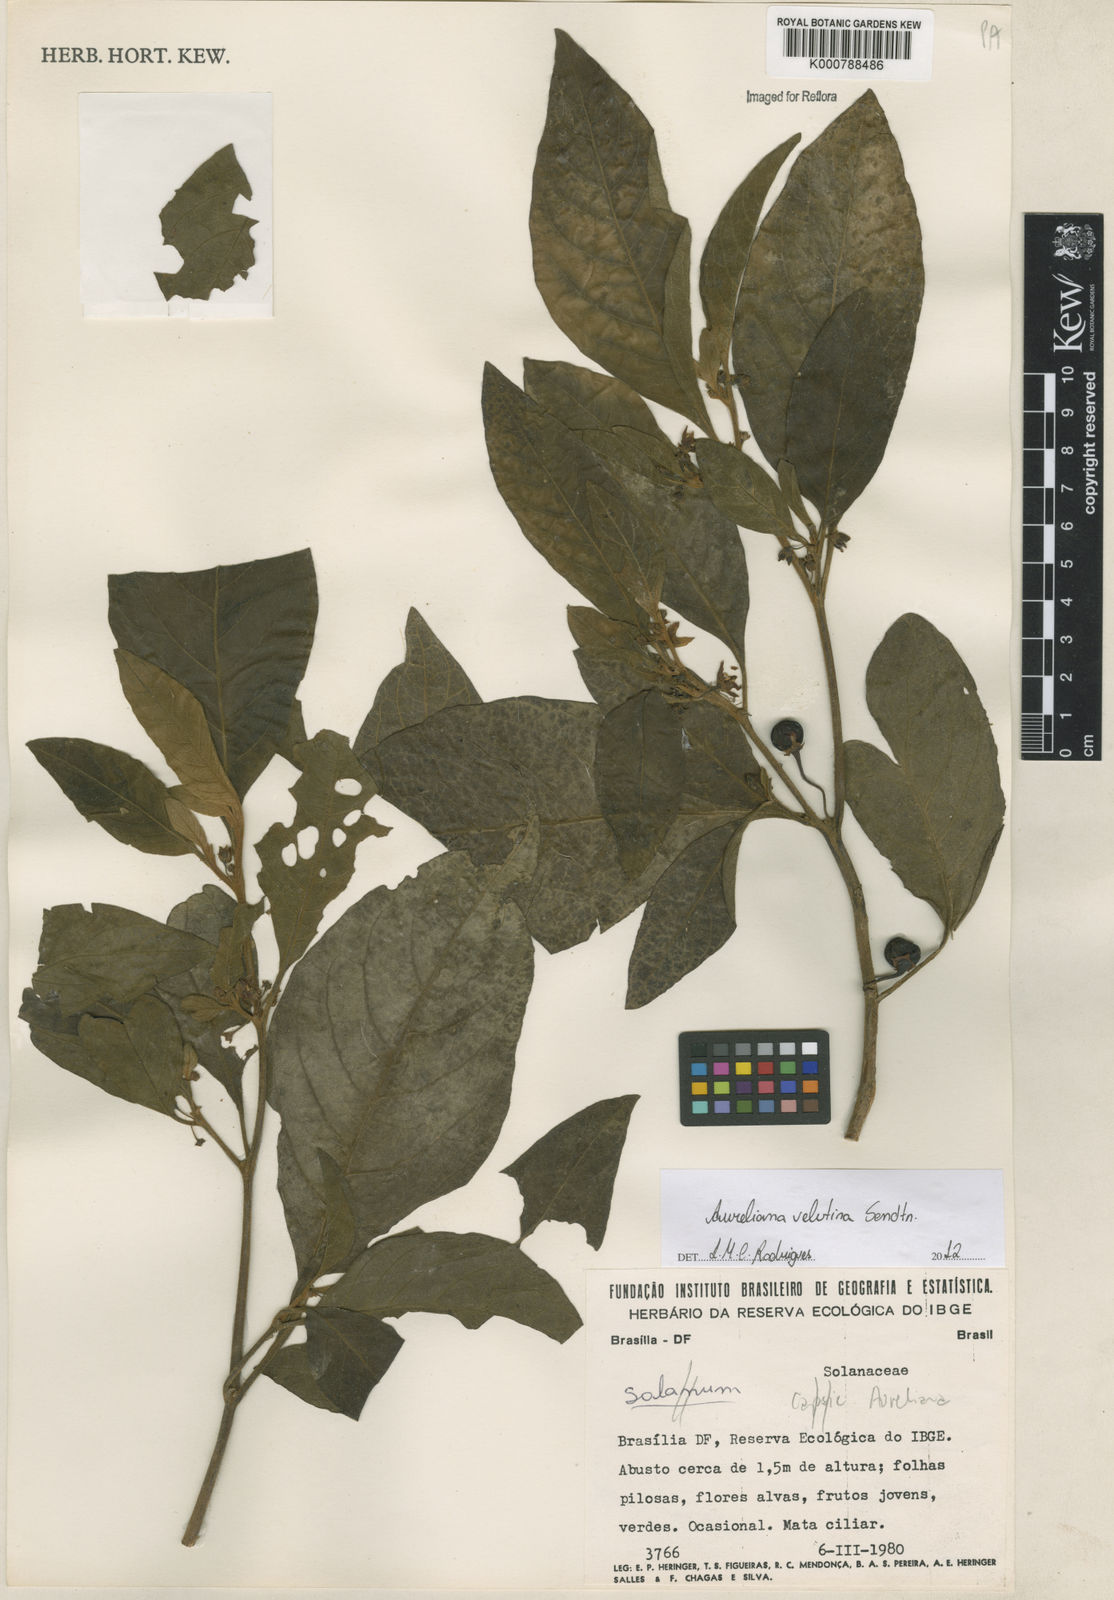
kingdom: Plantae
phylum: Tracheophyta
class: Magnoliopsida
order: Solanales
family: Solanaceae
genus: Athenaea
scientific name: Athenaea velutina
